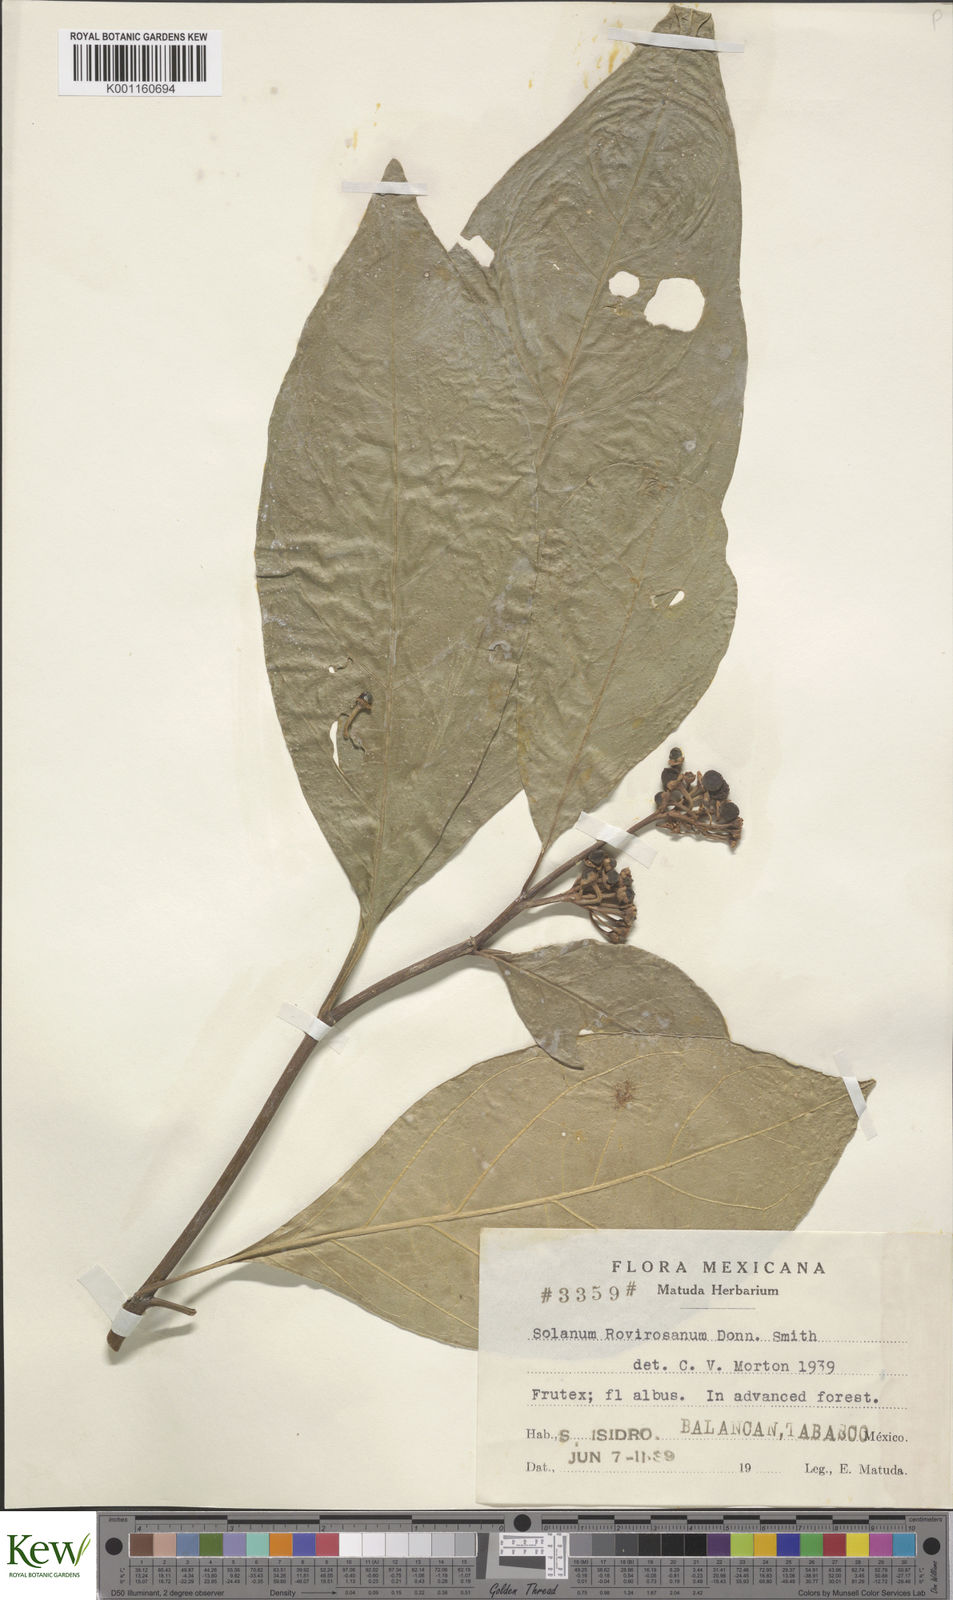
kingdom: Plantae
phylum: Tracheophyta
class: Magnoliopsida
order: Solanales
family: Solanaceae
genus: Solanum
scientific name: Solanum rovirosanum
